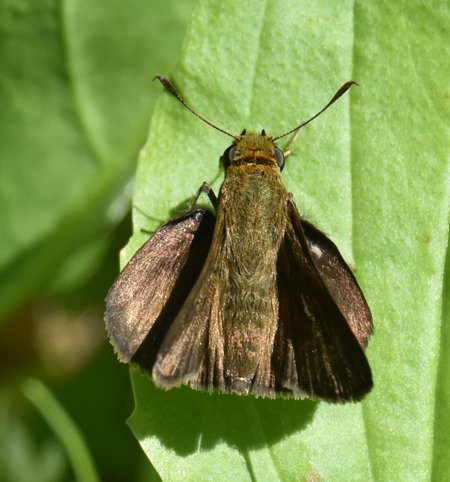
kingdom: Animalia
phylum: Arthropoda
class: Insecta
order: Lepidoptera
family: Hesperiidae
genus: Euphyes
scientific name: Euphyes vestris
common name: Dun Skipper
